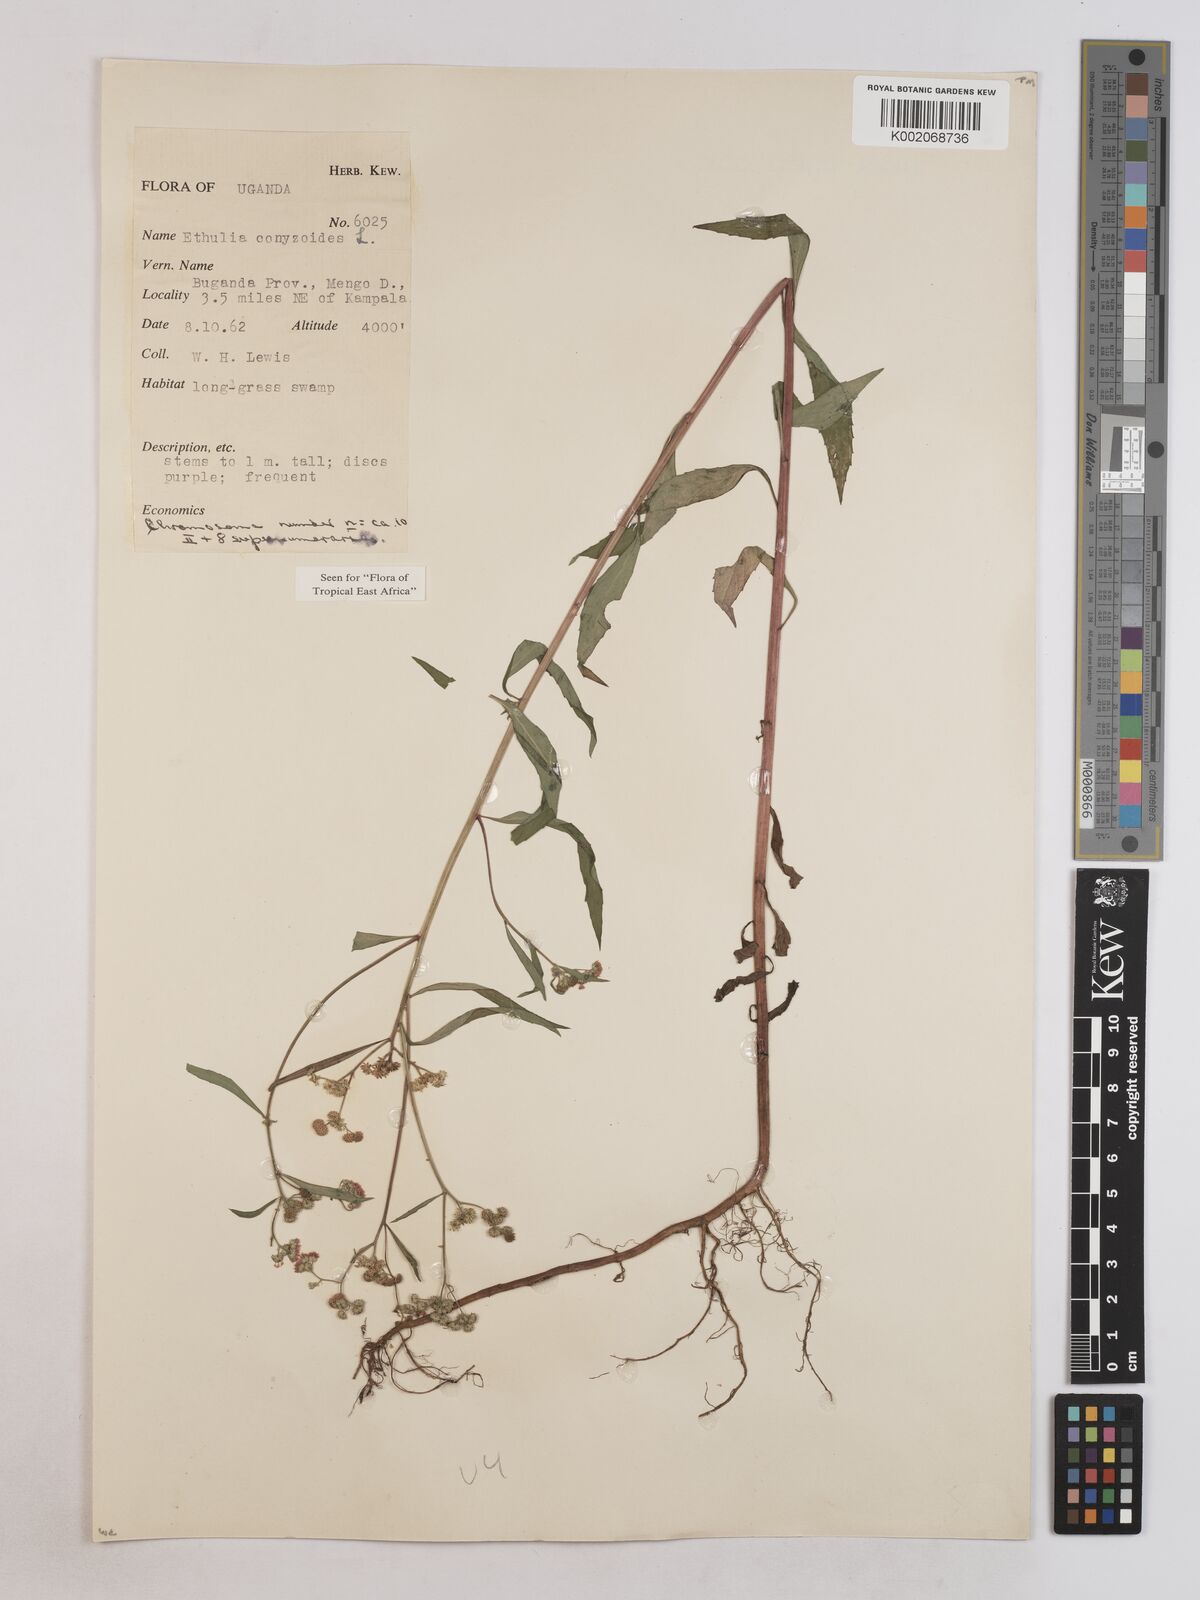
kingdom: Plantae
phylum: Tracheophyta
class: Magnoliopsida
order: Asterales
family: Asteraceae
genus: Ethulia
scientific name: Ethulia conyzoides
